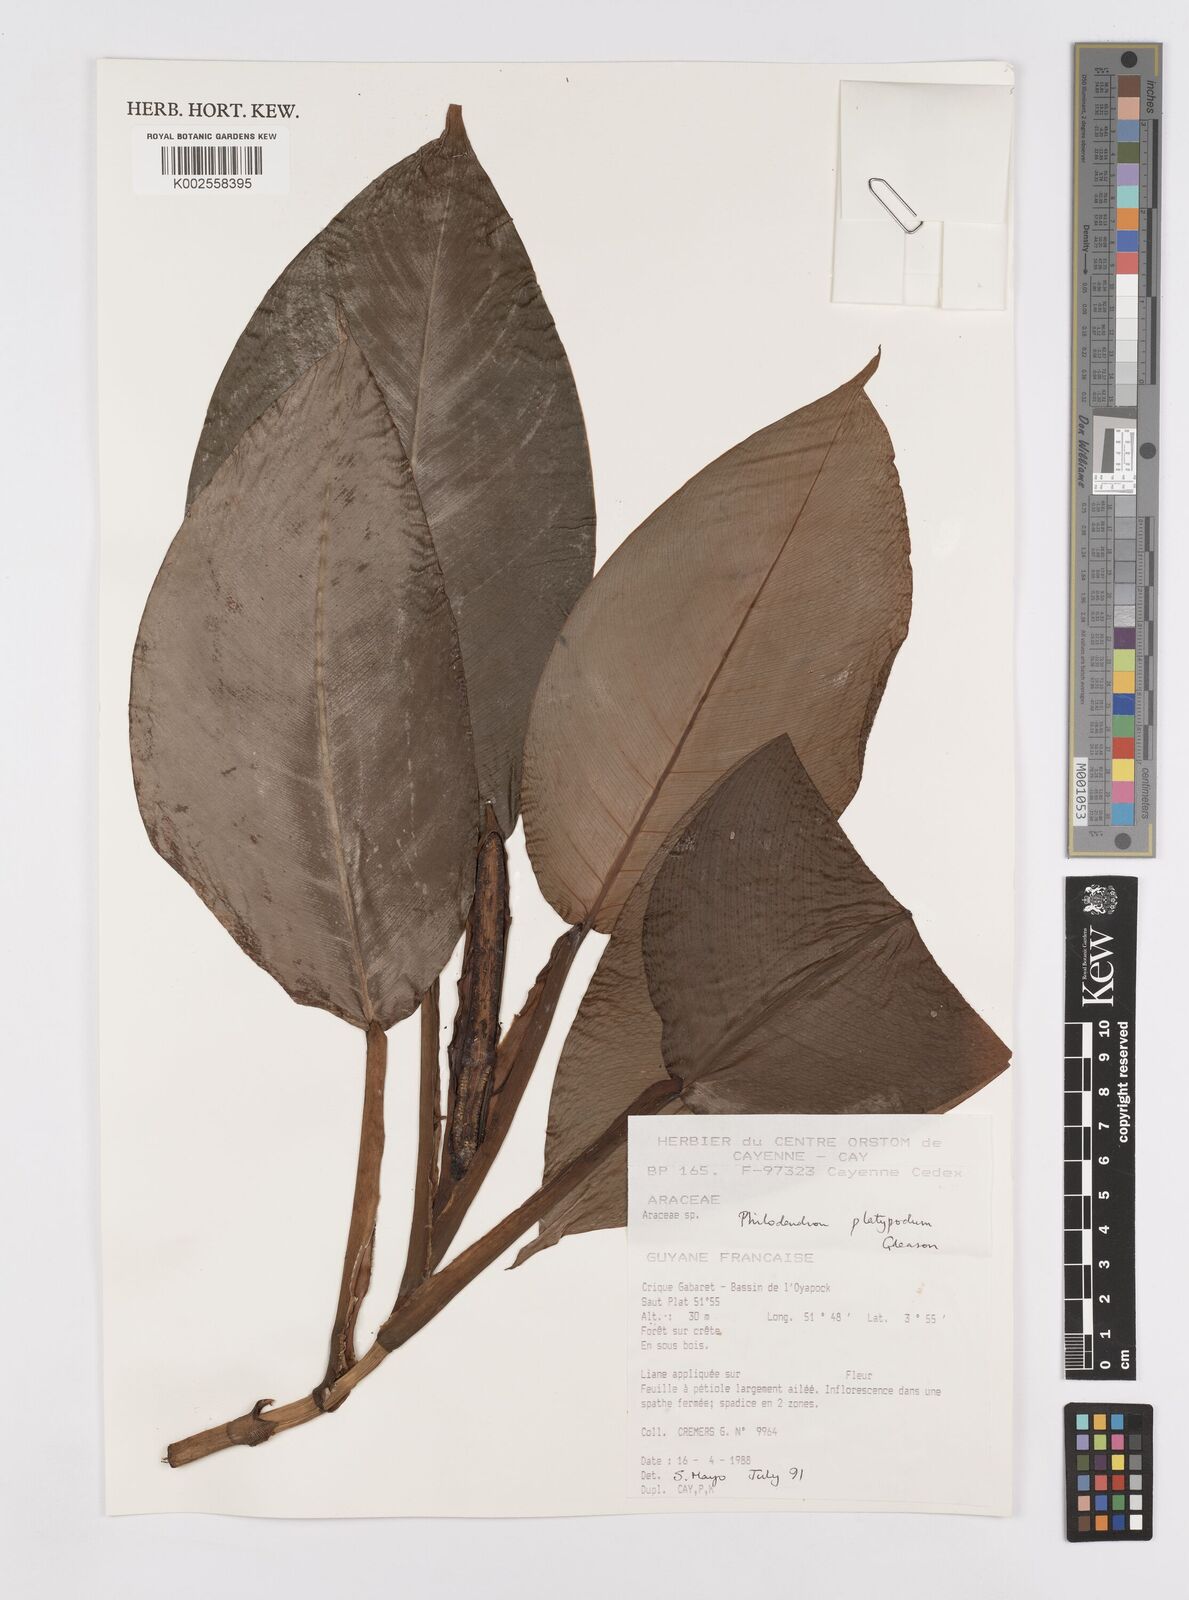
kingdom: Plantae
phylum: Tracheophyta
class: Liliopsida
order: Alismatales
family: Araceae
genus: Philodendron
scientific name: Philodendron platypodum
